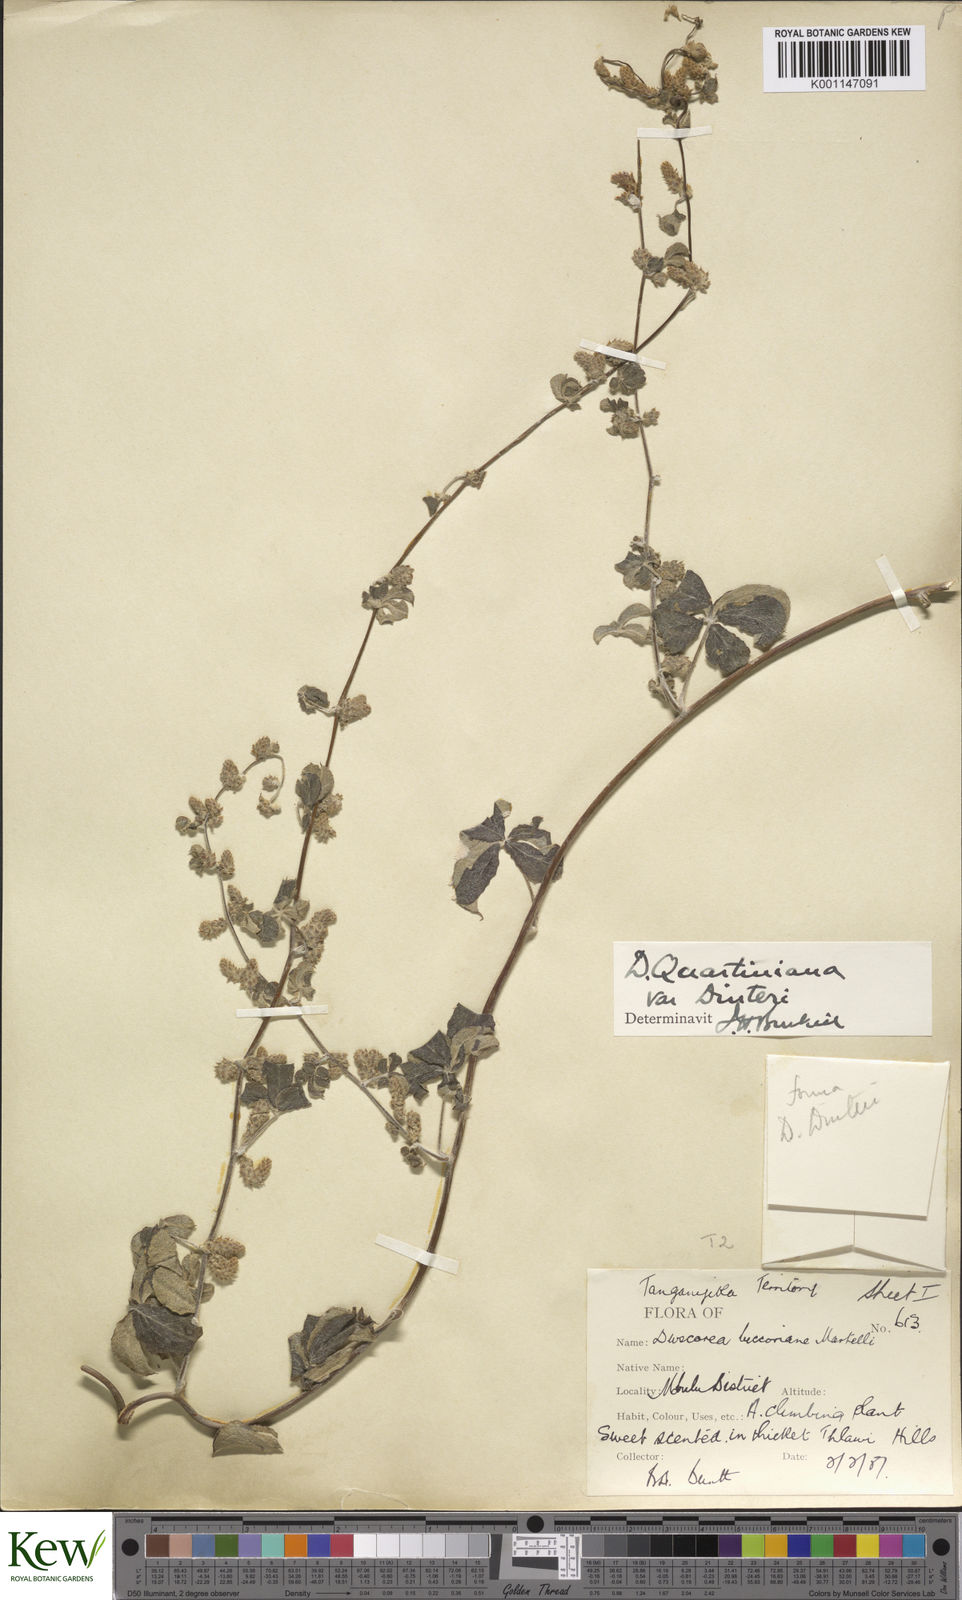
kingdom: Plantae
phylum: Tracheophyta
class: Liliopsida
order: Dioscoreales
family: Dioscoreaceae
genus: Dioscorea
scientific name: Dioscorea quartiniana
